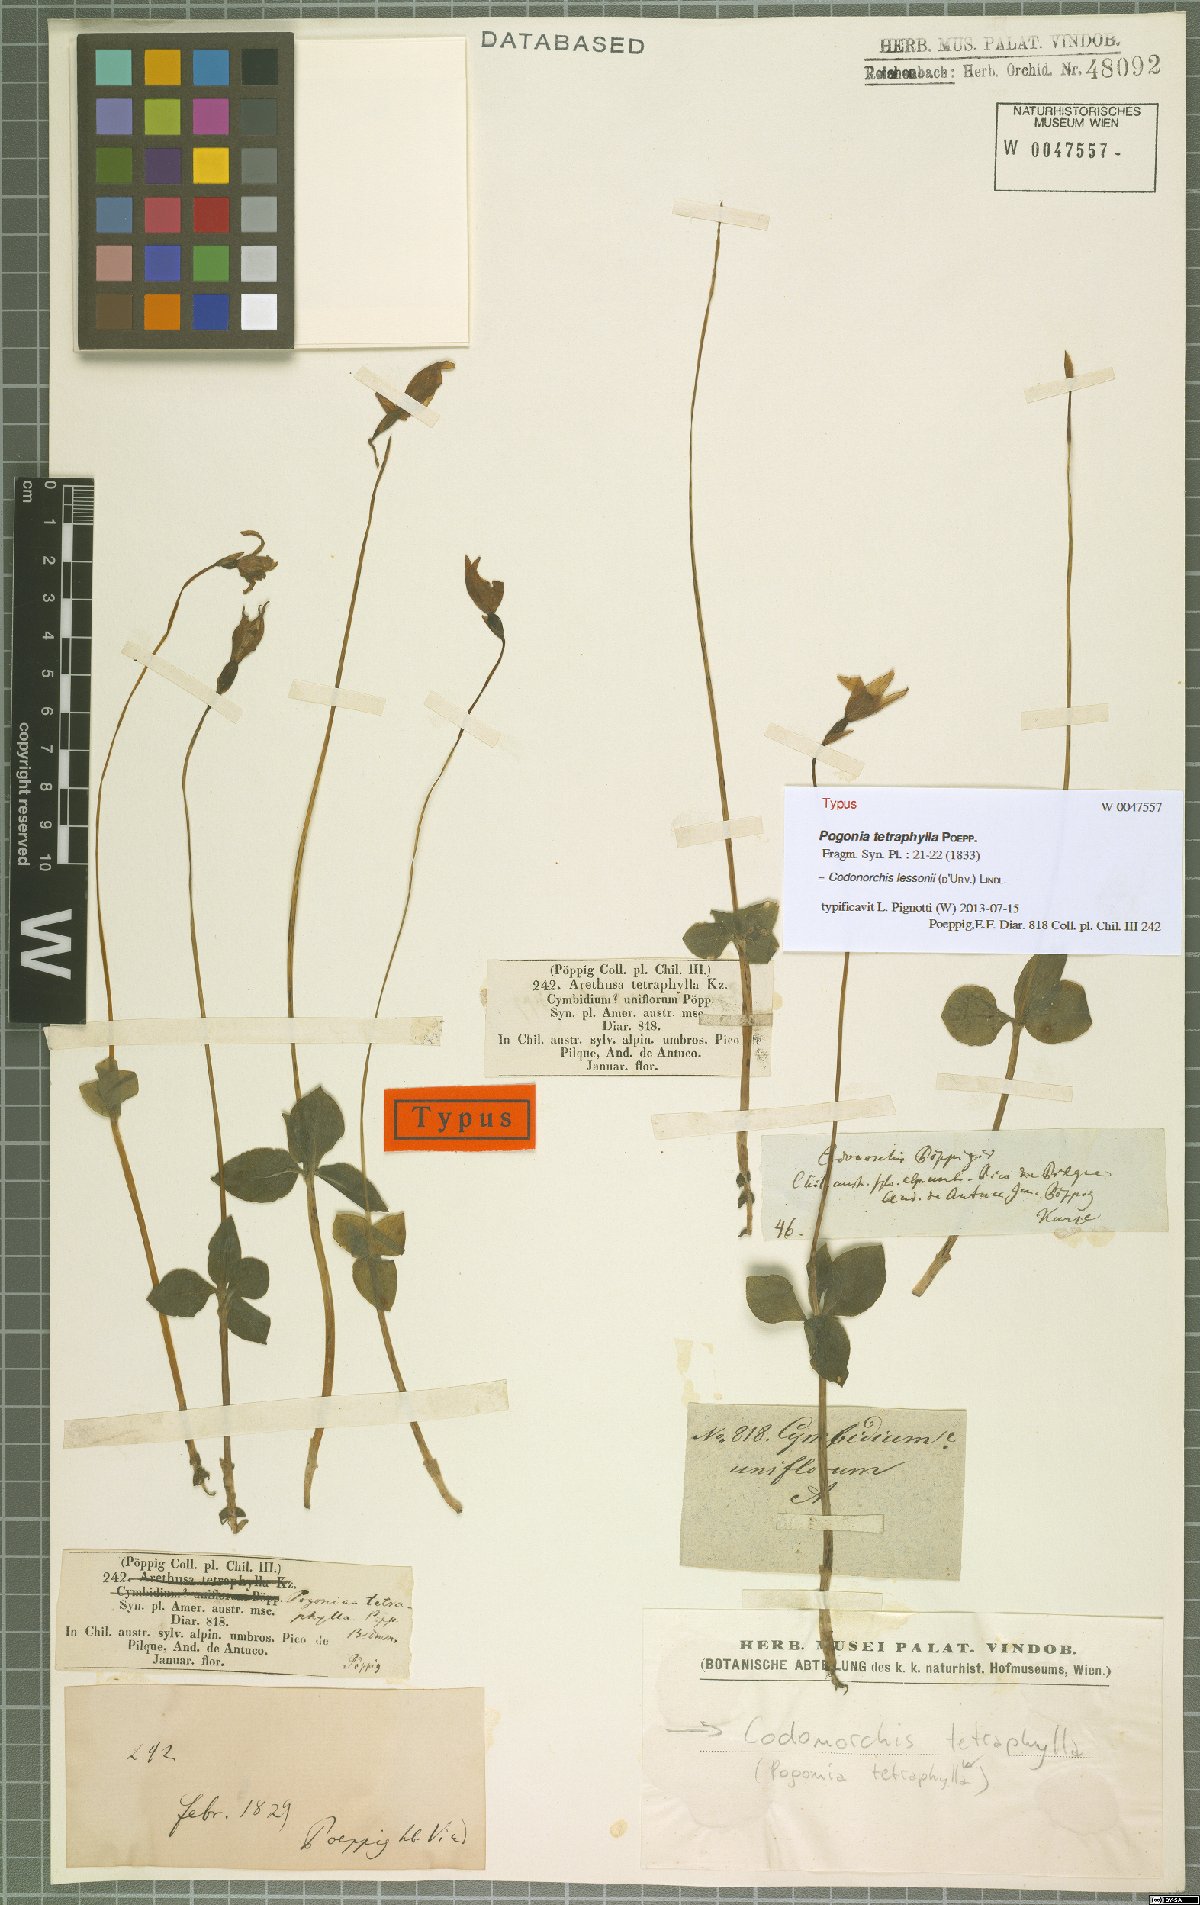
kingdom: Plantae
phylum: Tracheophyta
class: Liliopsida
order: Asparagales
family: Orchidaceae
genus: Codonorchis
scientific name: Codonorchis lessonii
